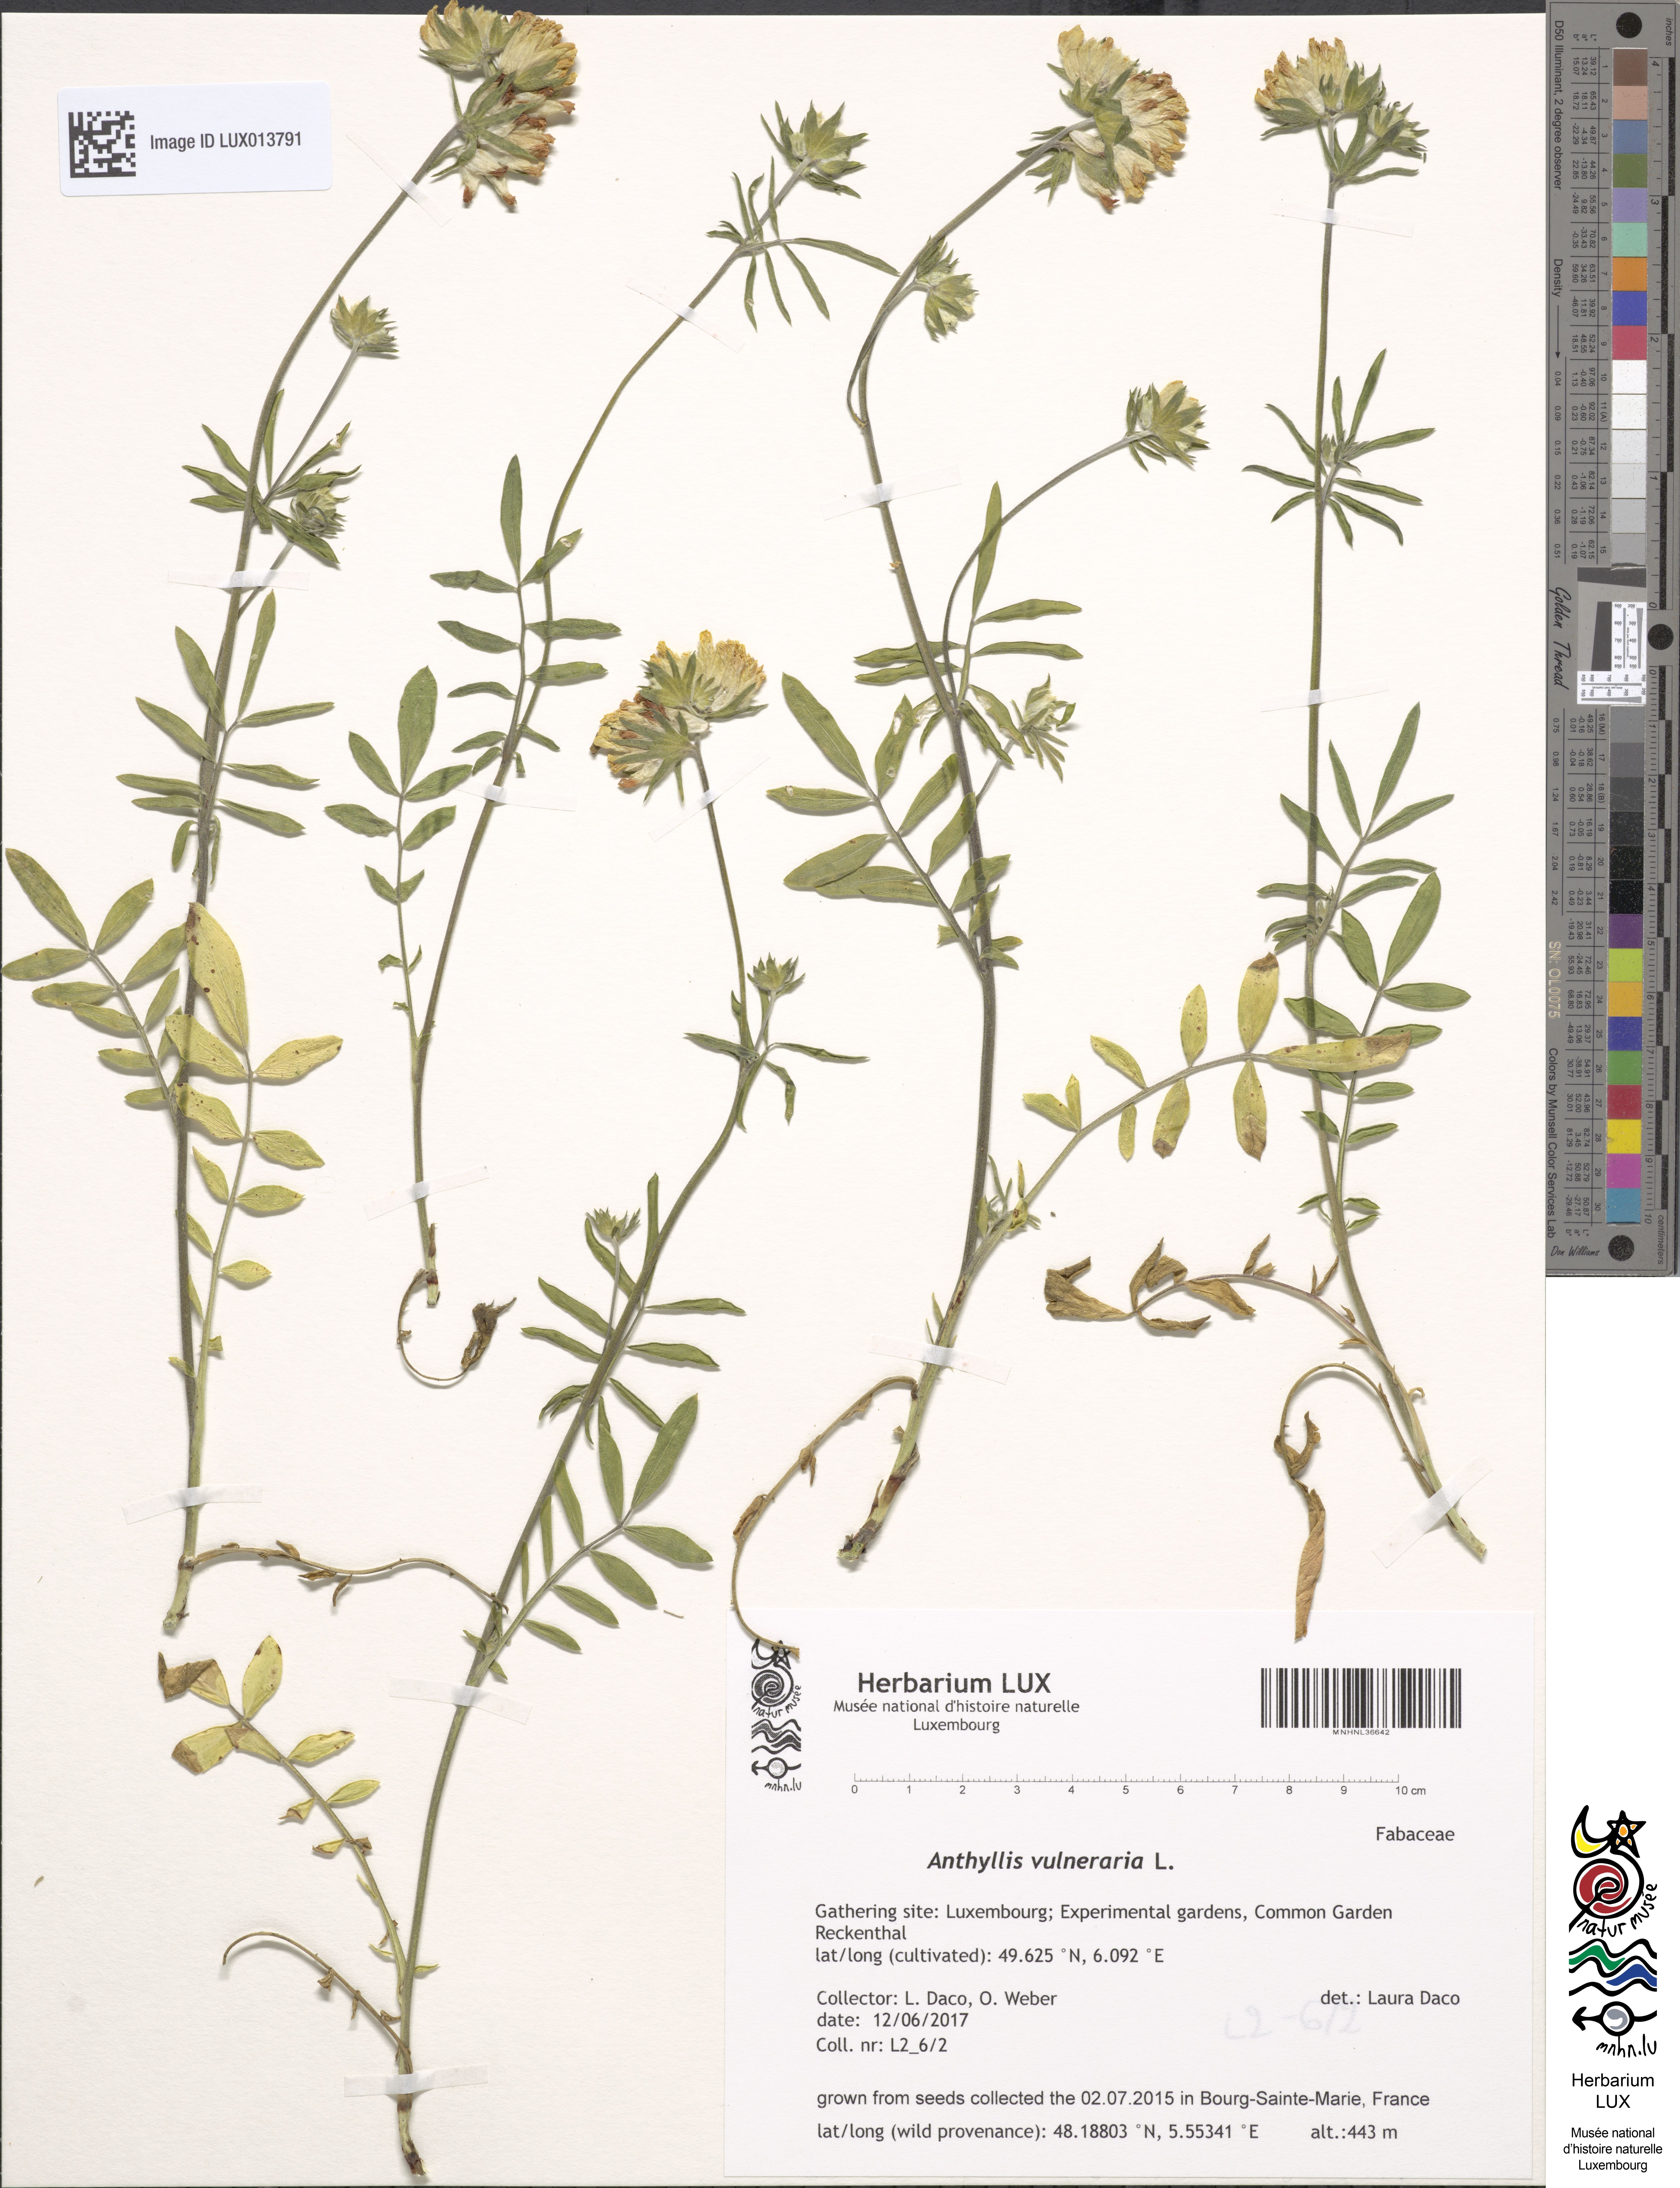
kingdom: Plantae
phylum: Tracheophyta
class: Magnoliopsida
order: Fabales
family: Fabaceae
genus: Anthyllis
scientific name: Anthyllis vulneraria
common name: Kidney vetch
